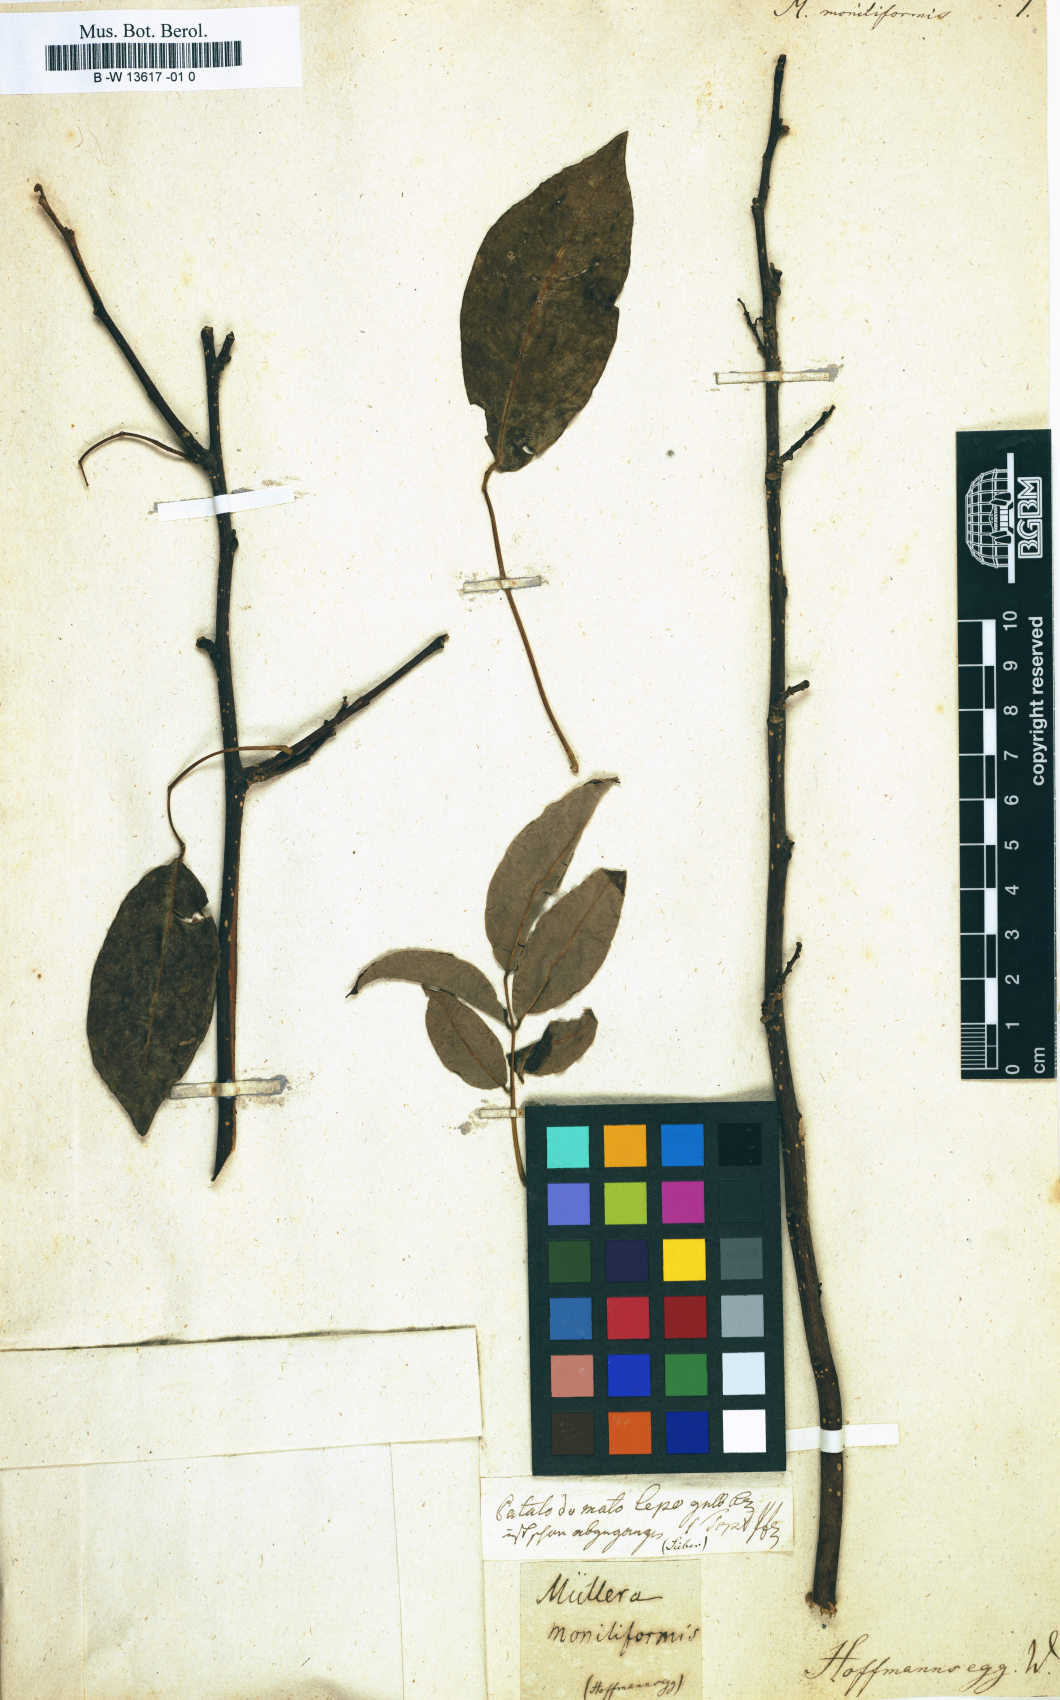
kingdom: Plantae
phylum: Tracheophyta
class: Magnoliopsida
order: Fabales
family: Fabaceae
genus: Muellera
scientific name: Muellera monilis
